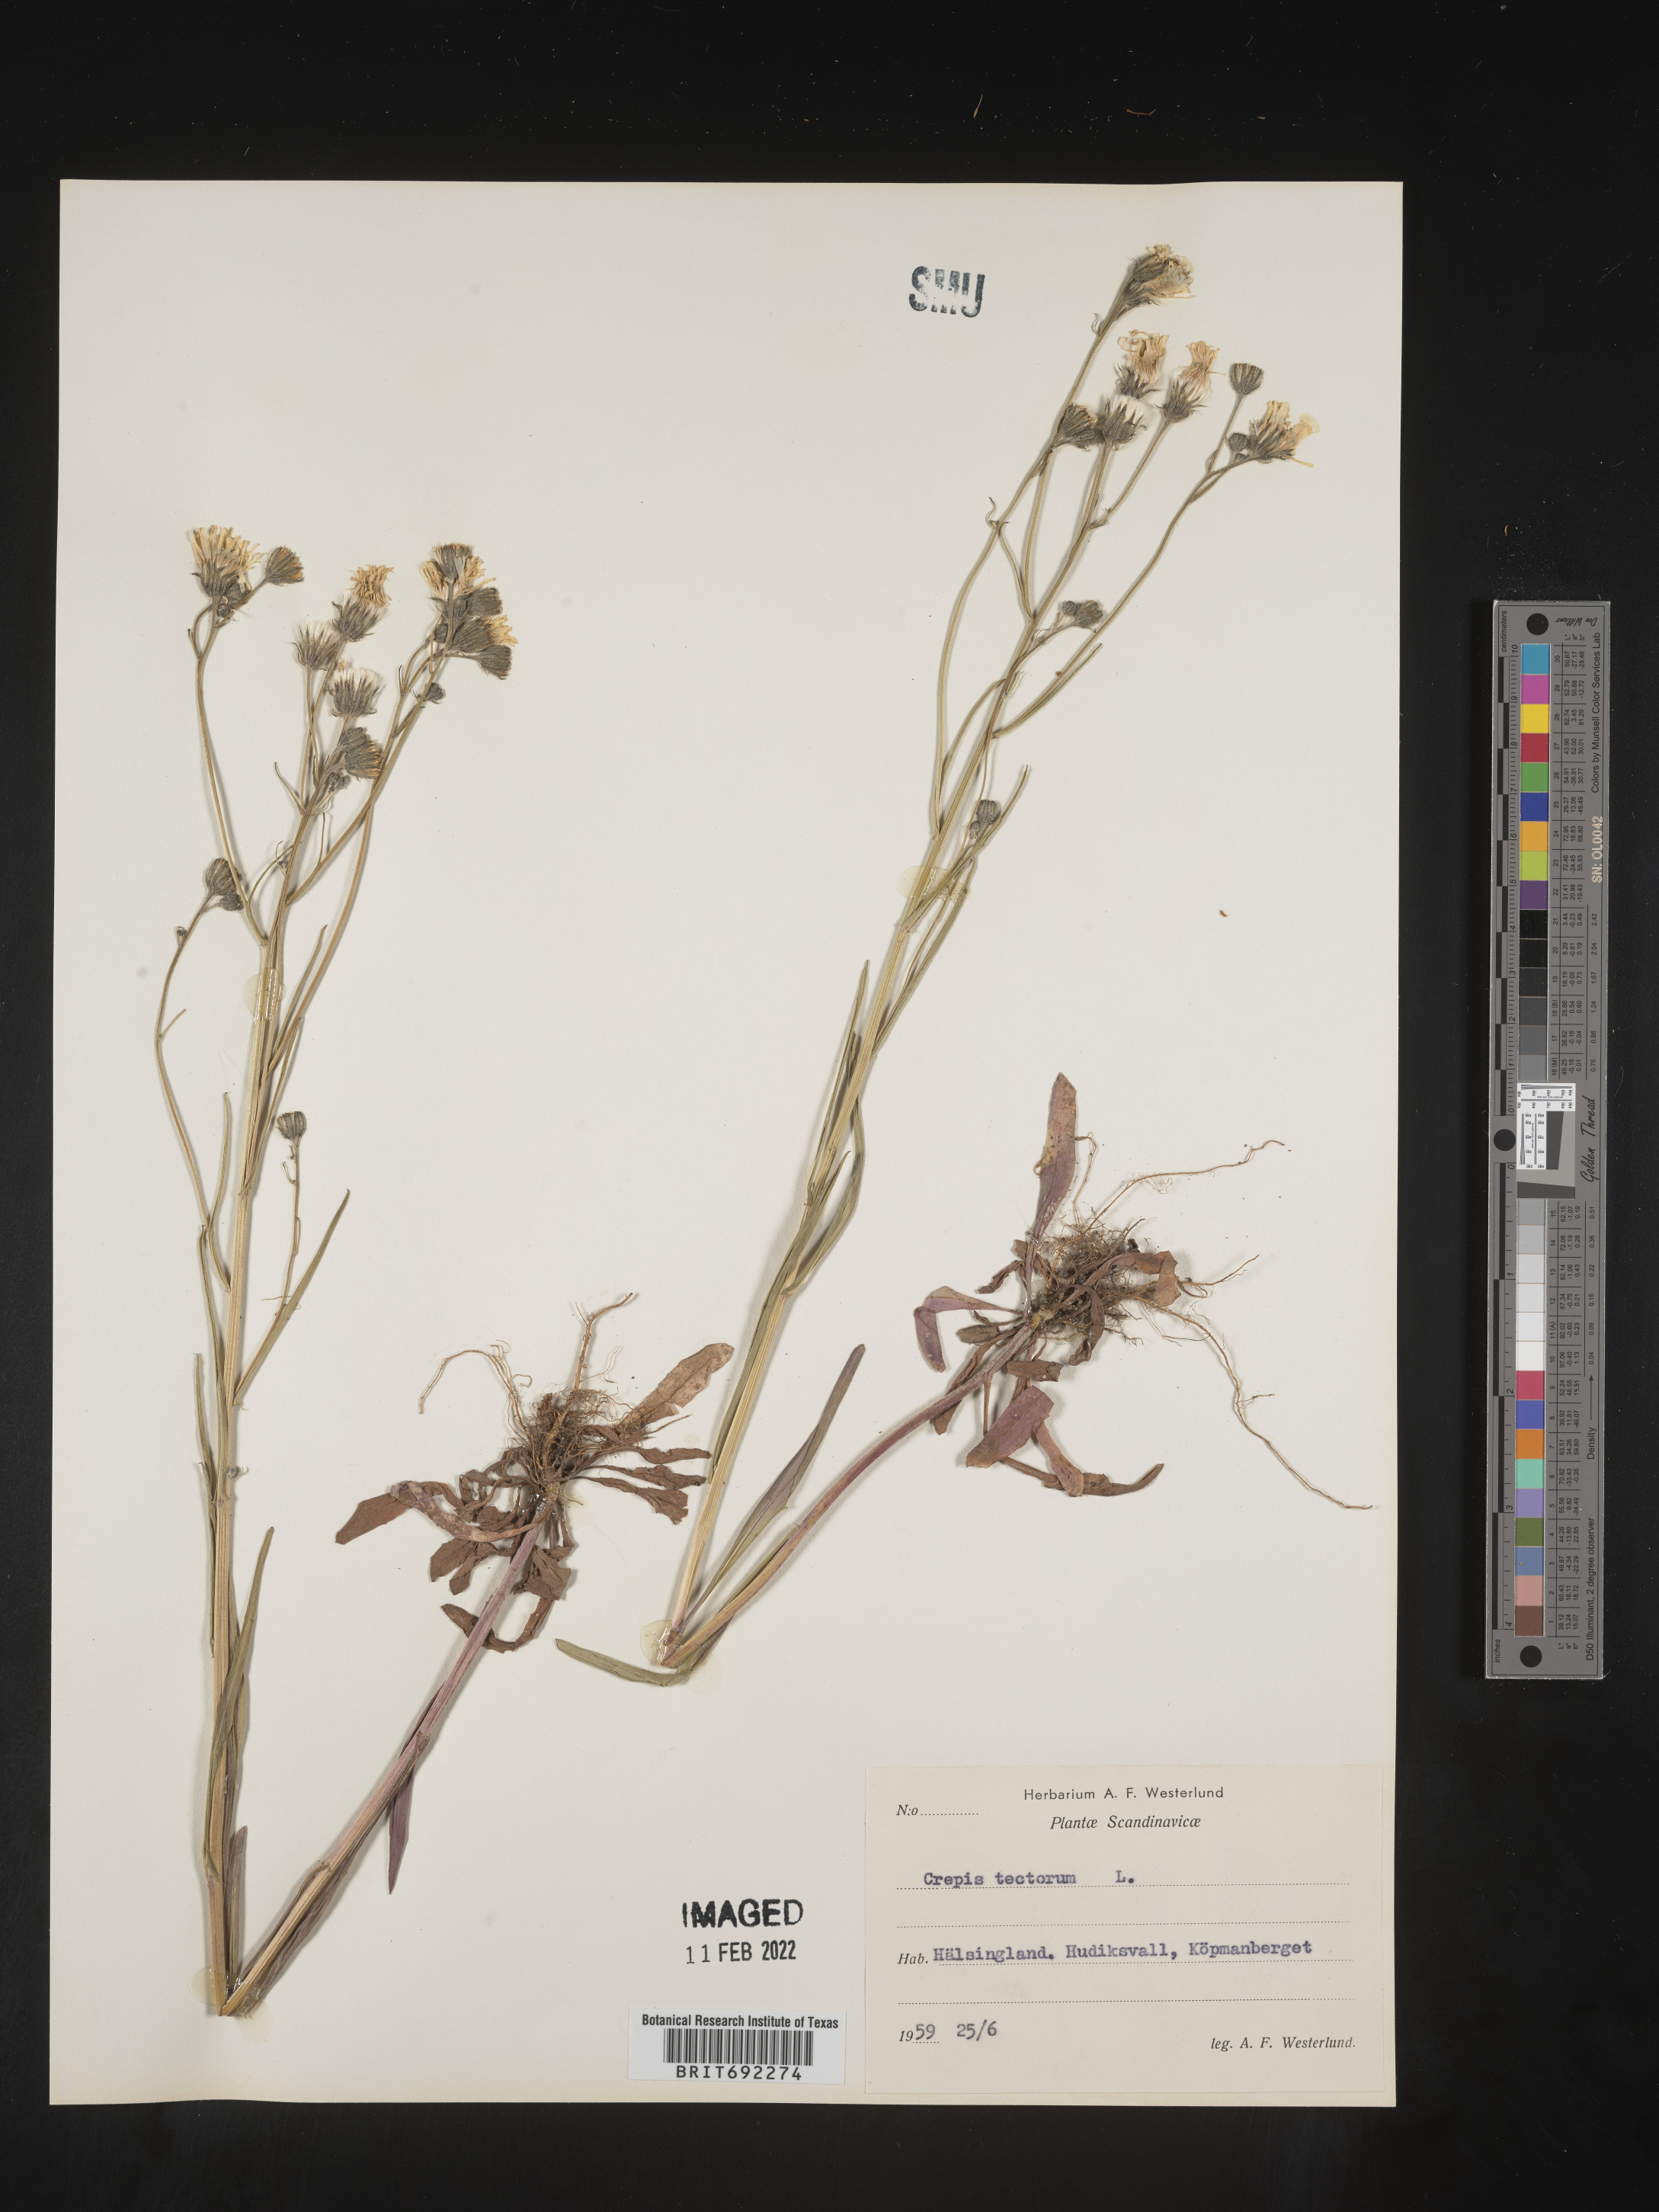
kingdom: Plantae
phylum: Tracheophyta
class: Magnoliopsida
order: Asterales
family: Asteraceae
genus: Crepis
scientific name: Crepis
